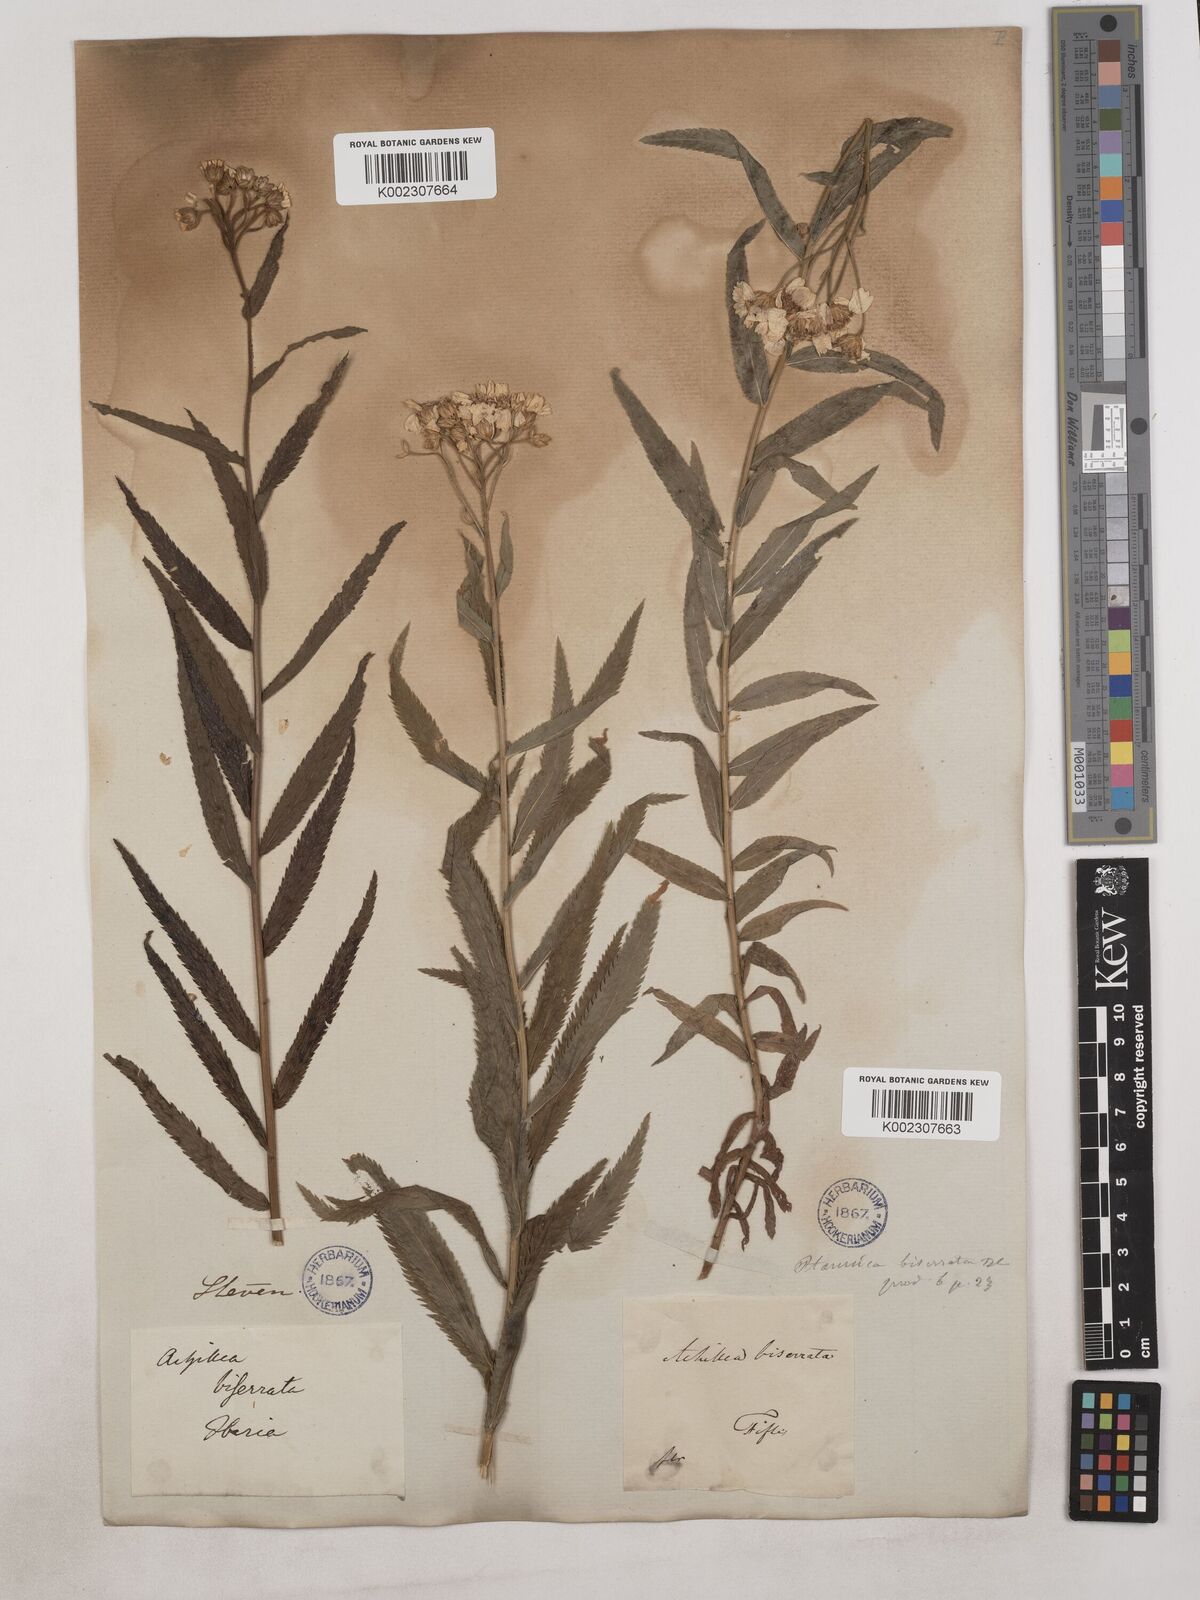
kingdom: Plantae
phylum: Tracheophyta
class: Magnoliopsida
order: Asterales
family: Asteraceae
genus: Achillea
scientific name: Achillea biserrata
